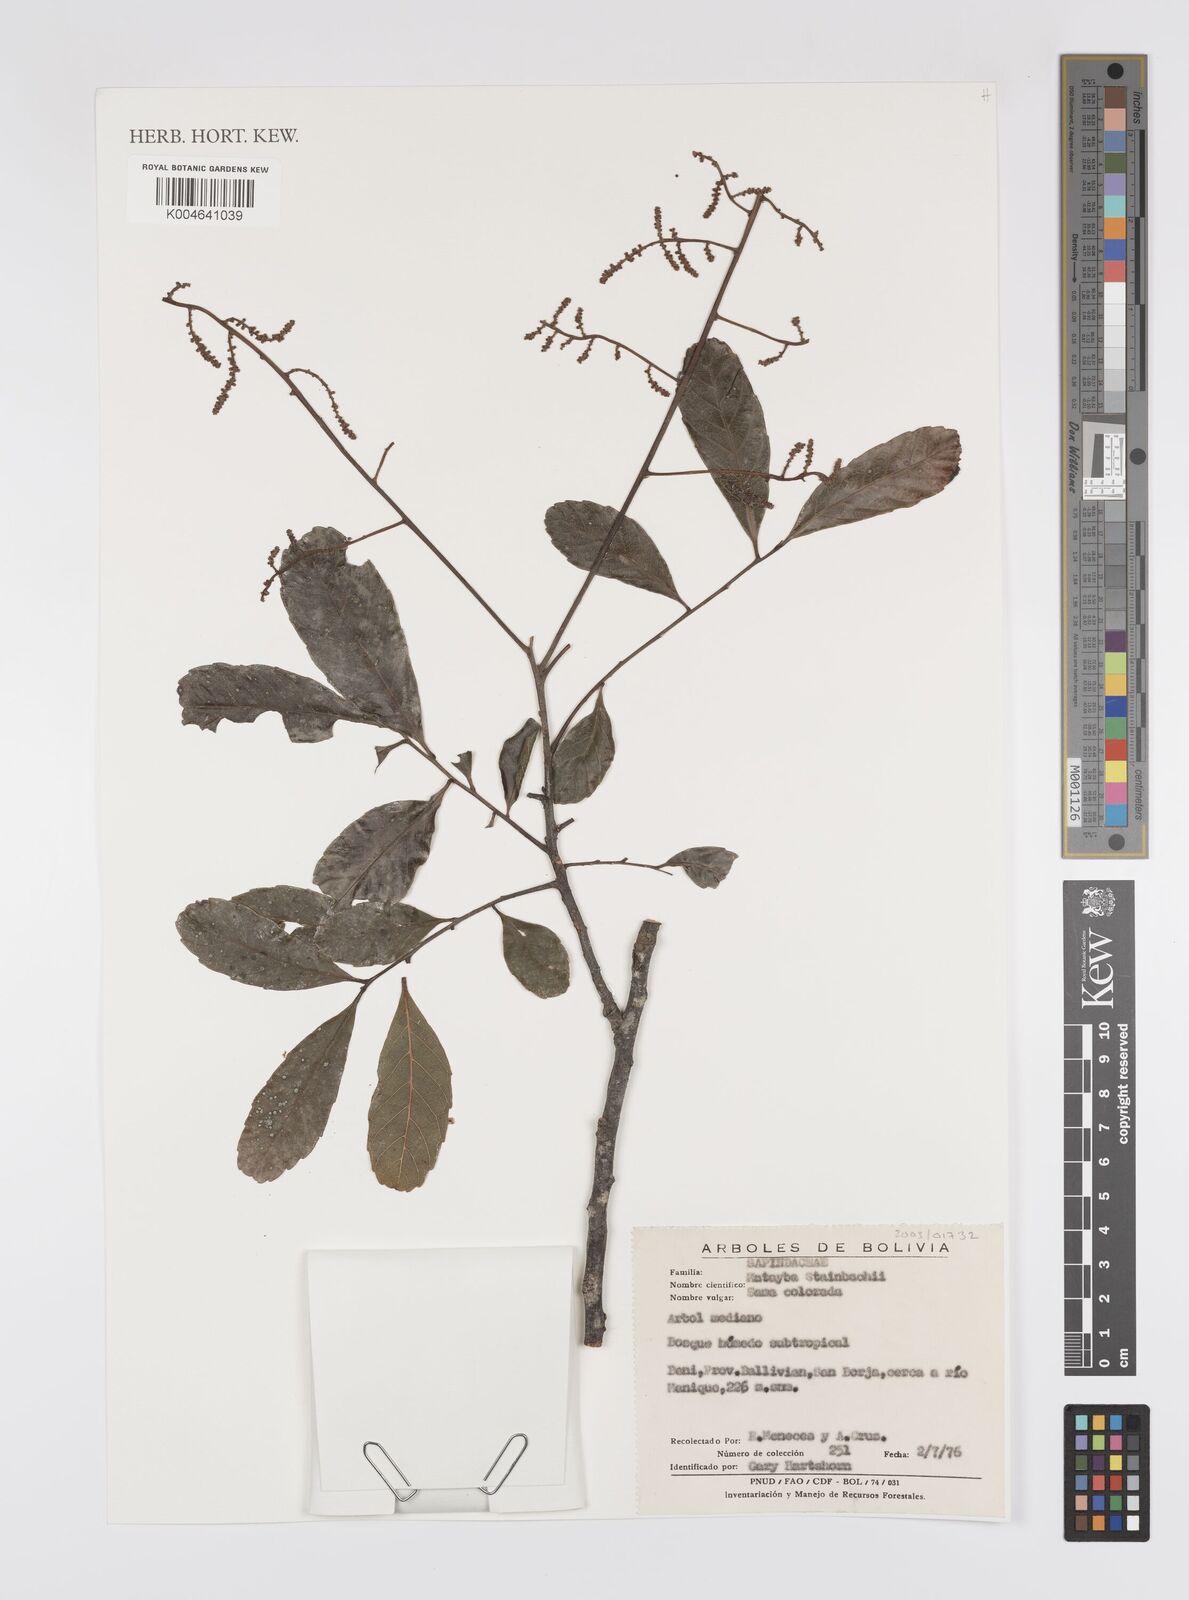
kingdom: Plantae
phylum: Tracheophyta
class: Magnoliopsida
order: Sapindales
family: Sapindaceae
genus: Matayba
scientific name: Matayba guianensis
